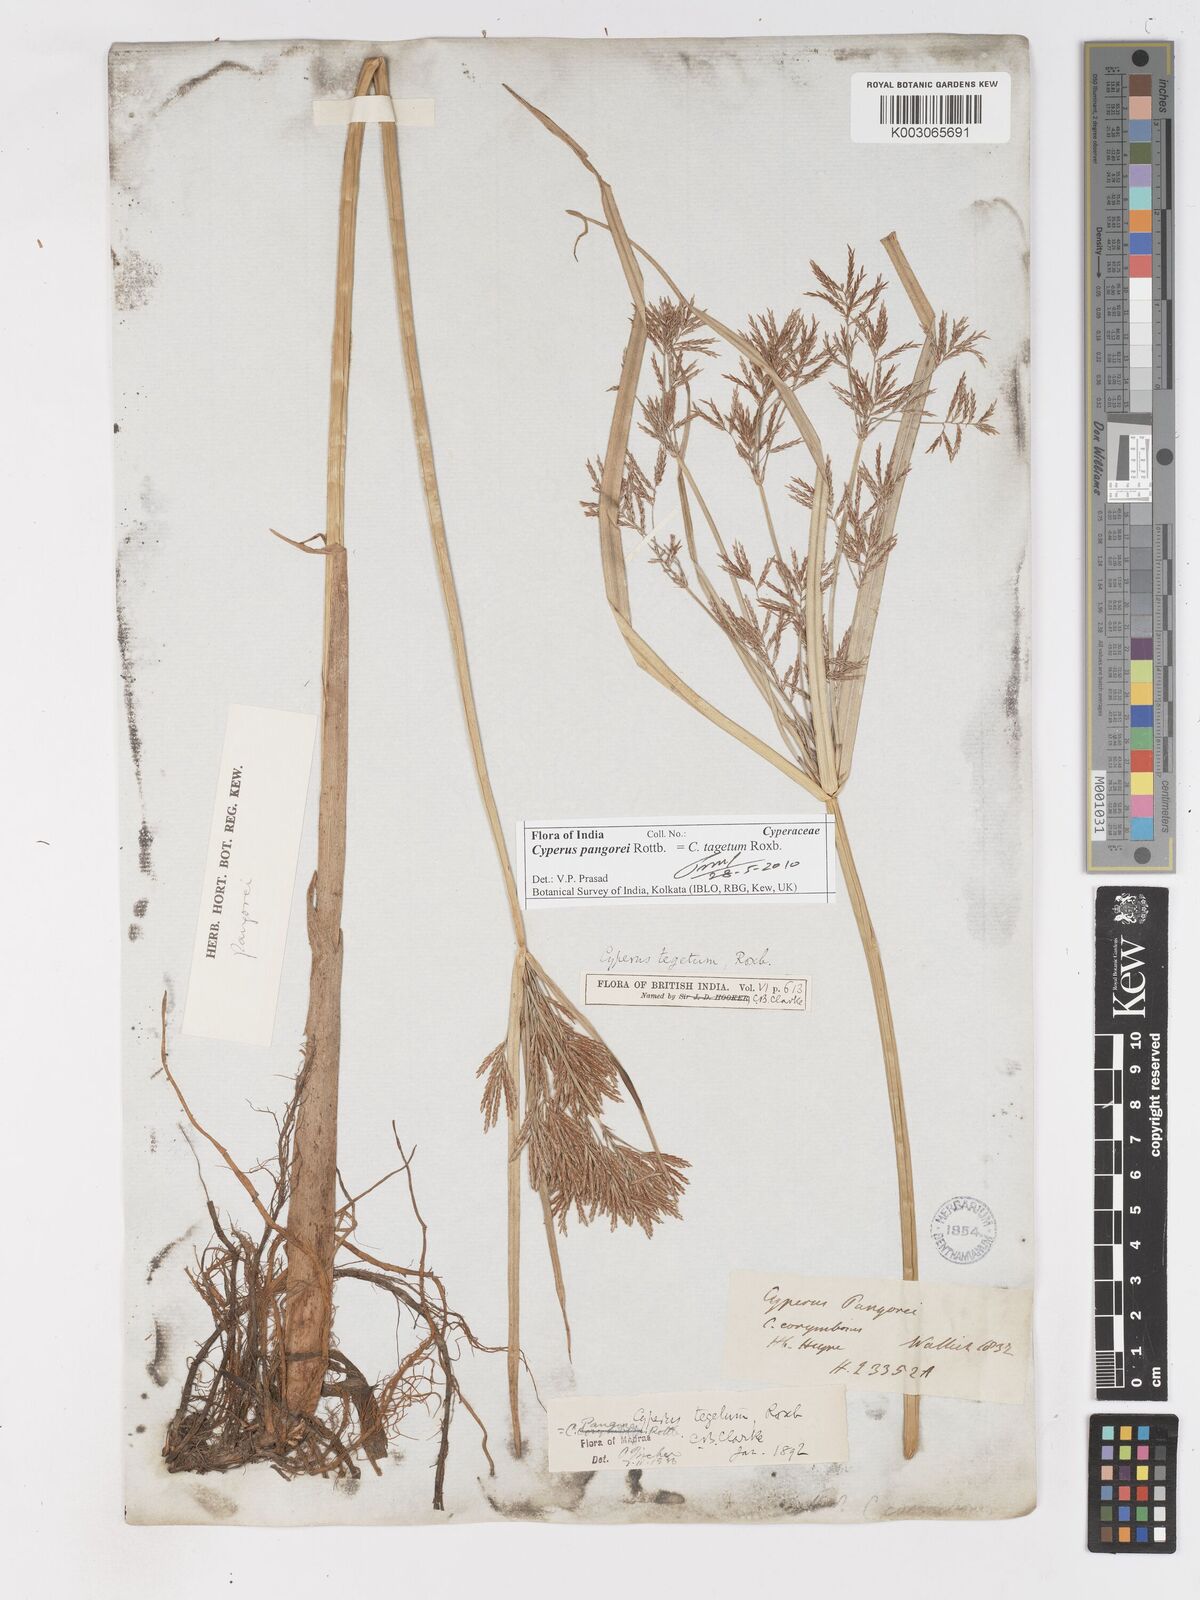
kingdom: Plantae
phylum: Tracheophyta
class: Liliopsida
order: Poales
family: Cyperaceae
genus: Cyperus
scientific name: Cyperus pangorei
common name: Mat sedge
